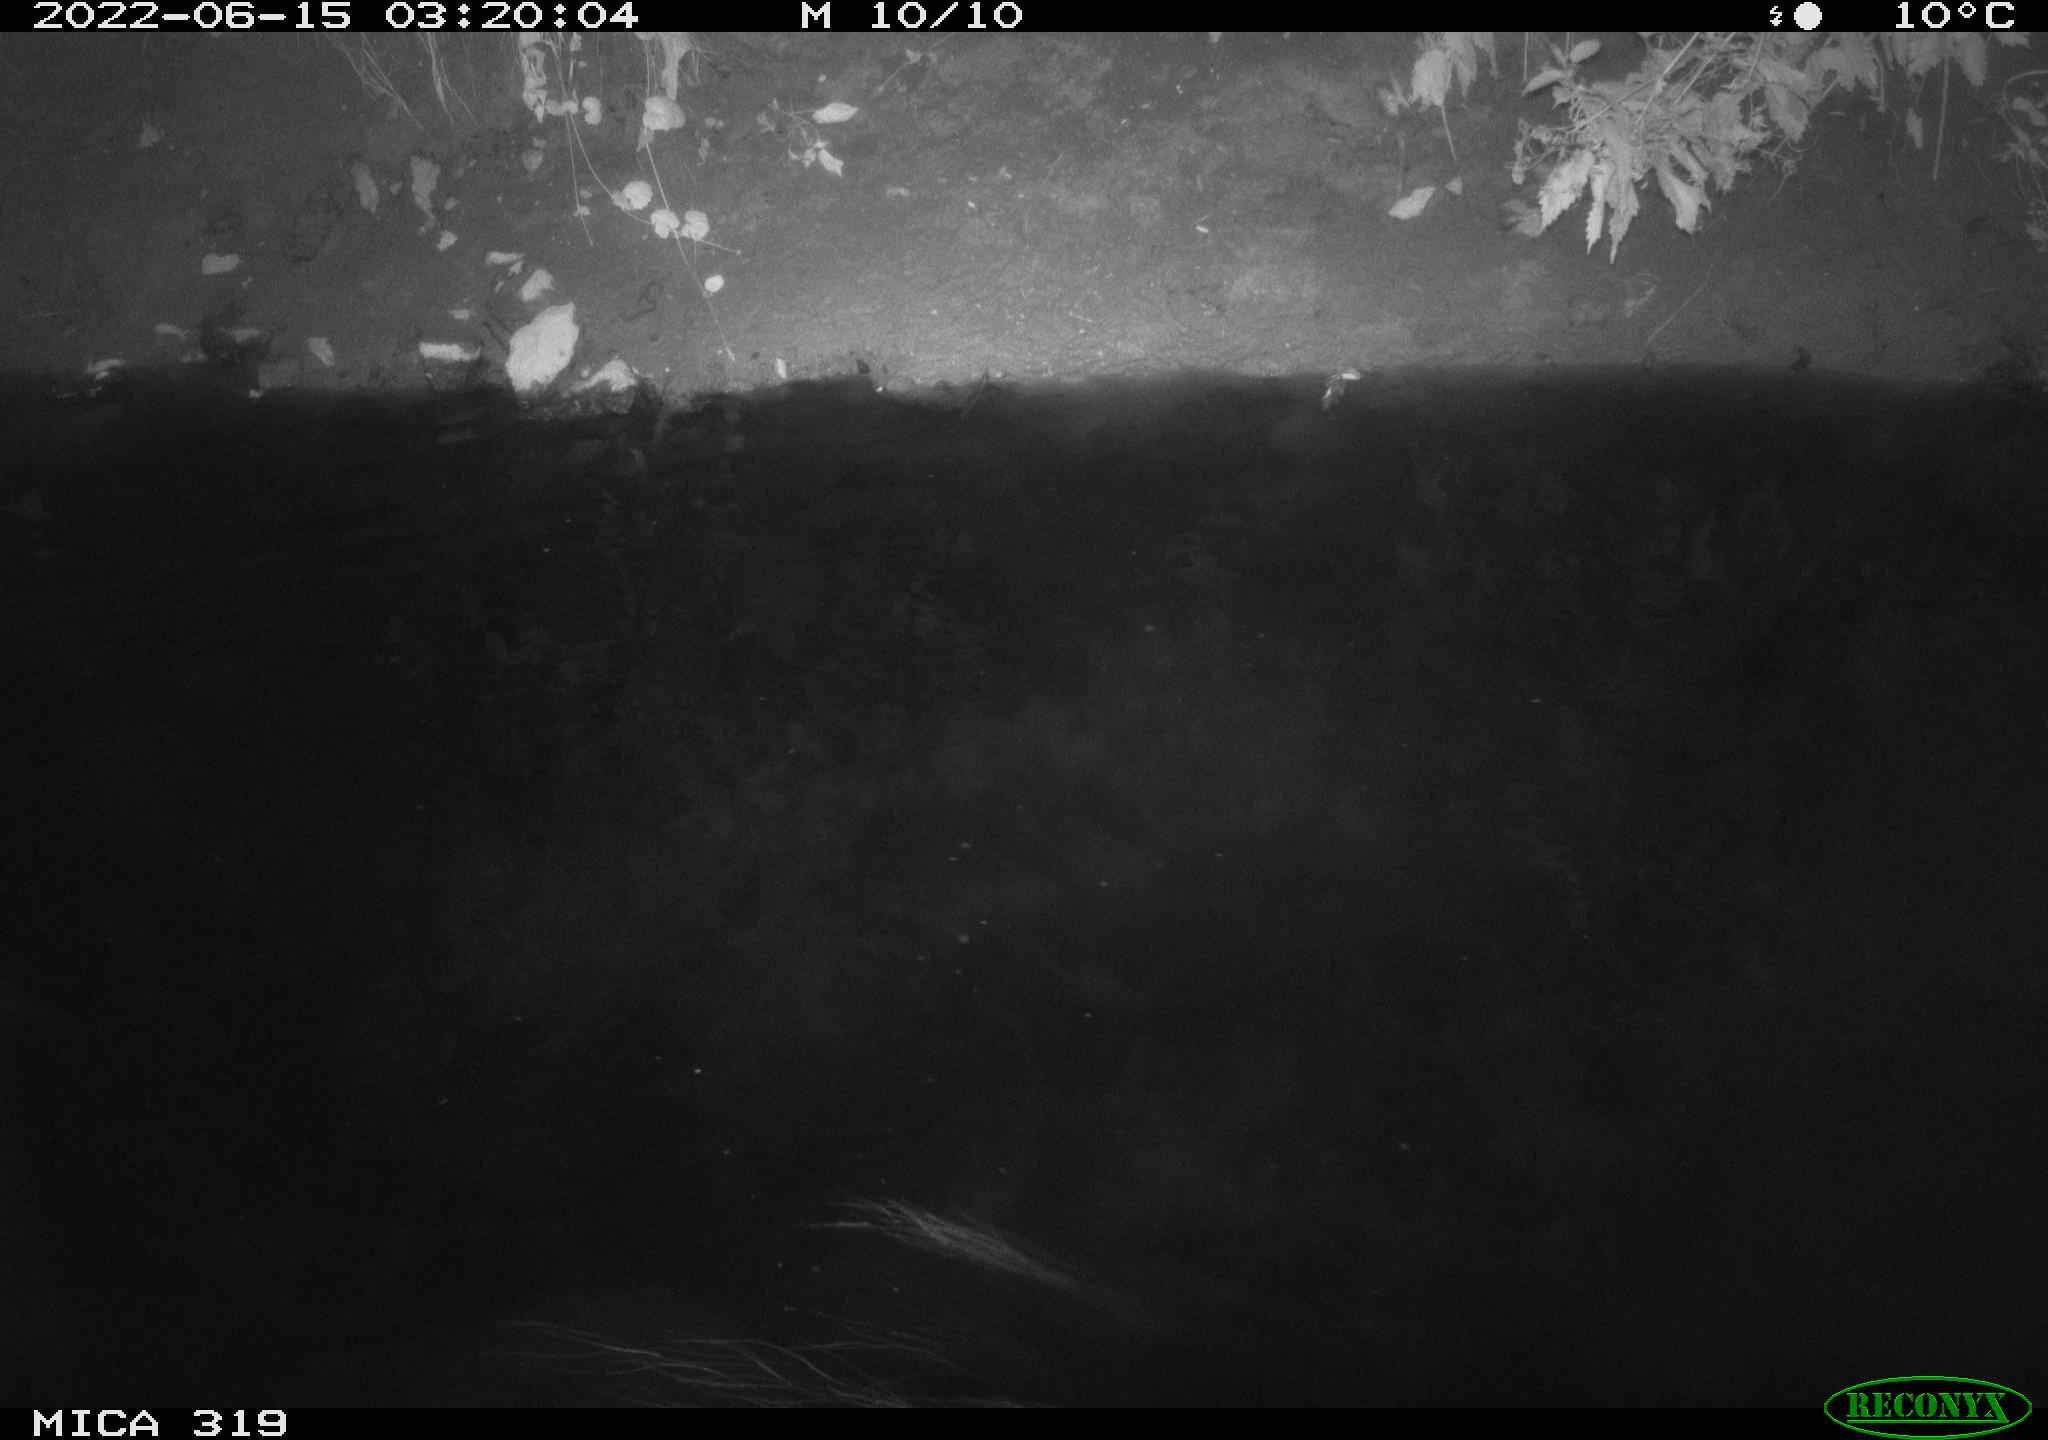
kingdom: Animalia
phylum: Chordata
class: Aves
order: Anseriformes
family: Anatidae
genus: Anas
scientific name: Anas
